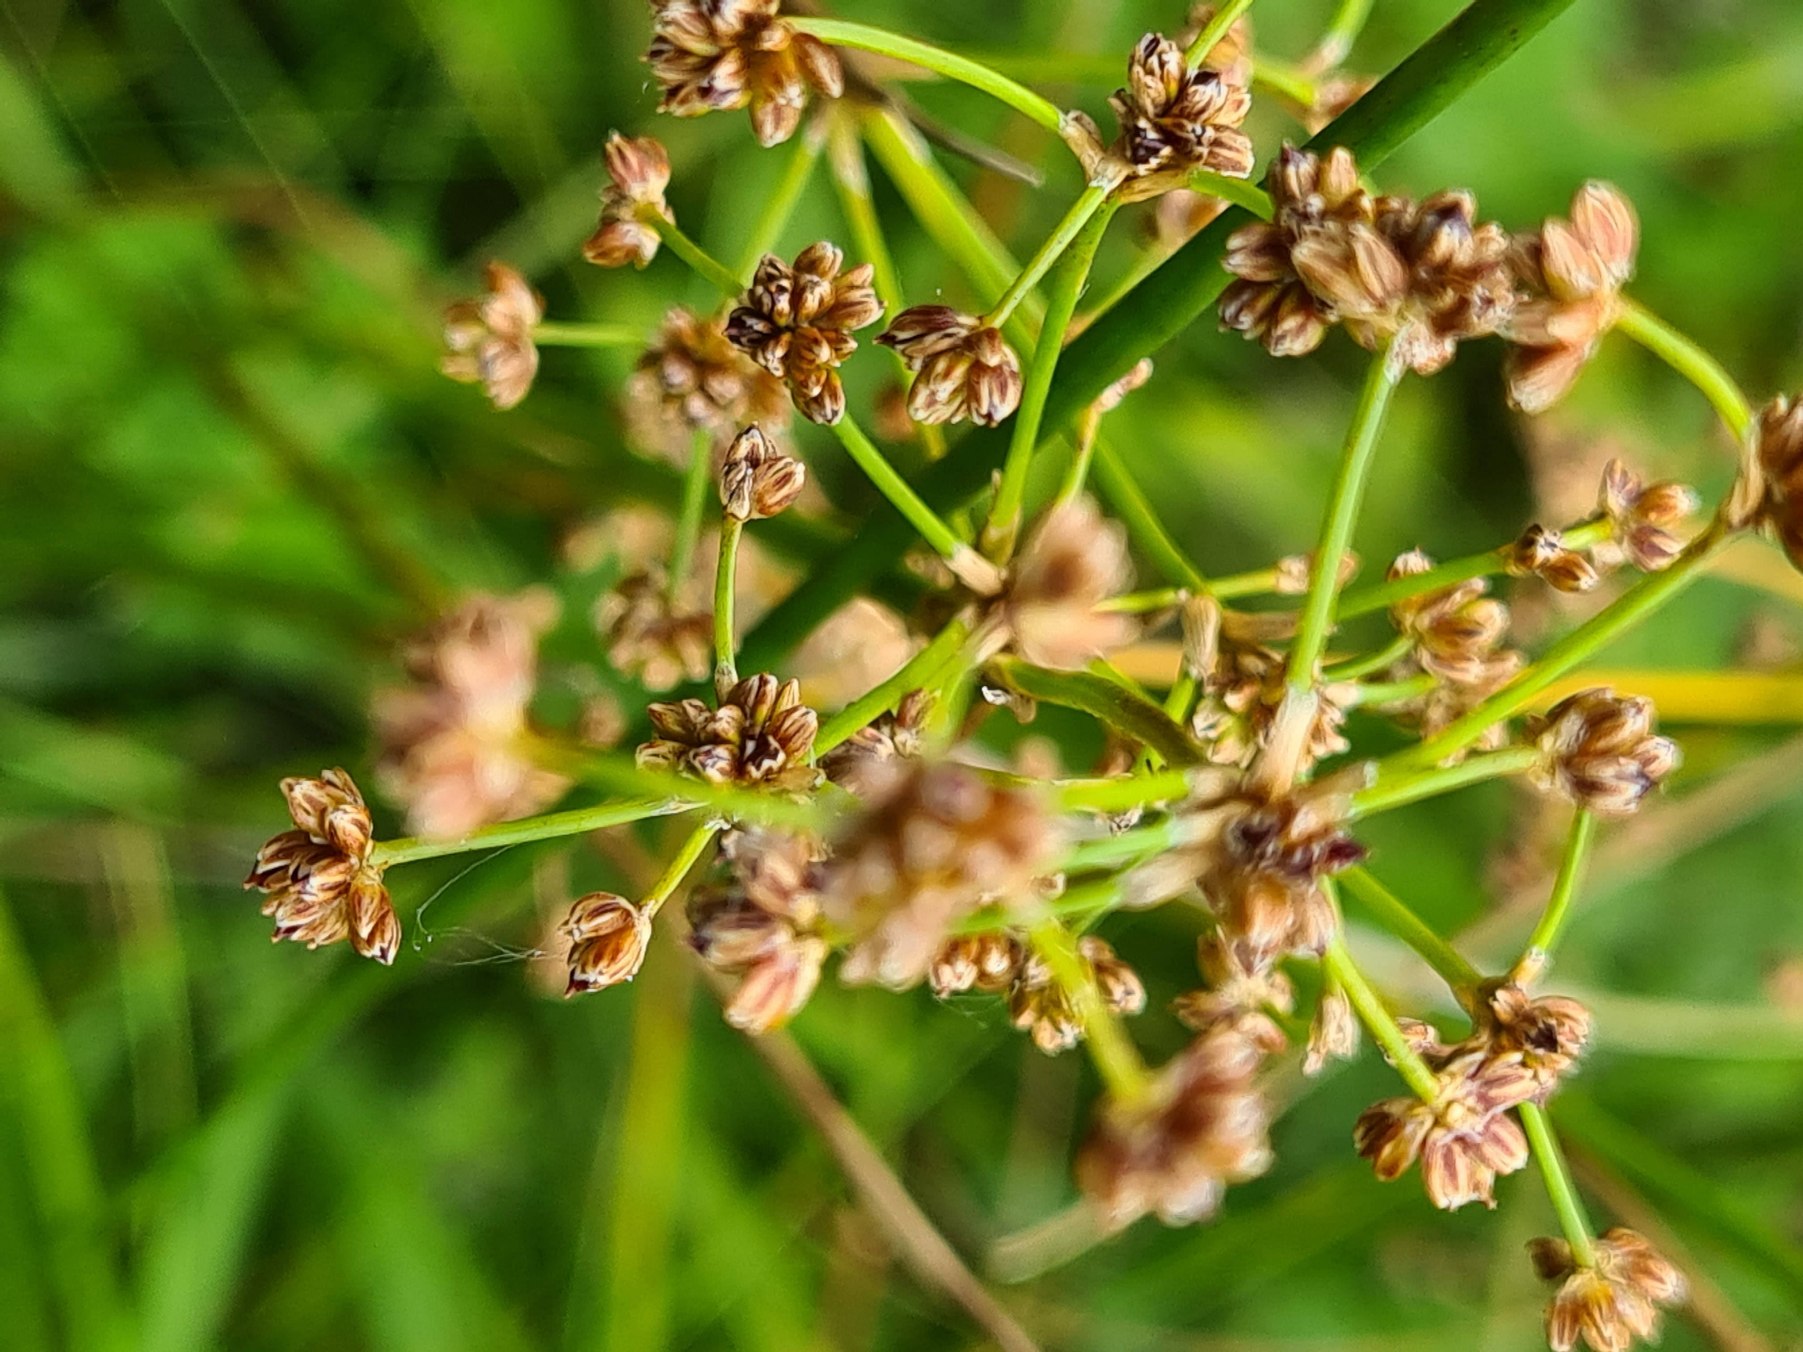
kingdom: Plantae
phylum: Tracheophyta
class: Liliopsida
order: Poales
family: Juncaceae
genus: Juncus
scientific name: Juncus subnodulosus
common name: Butblomstret siv
